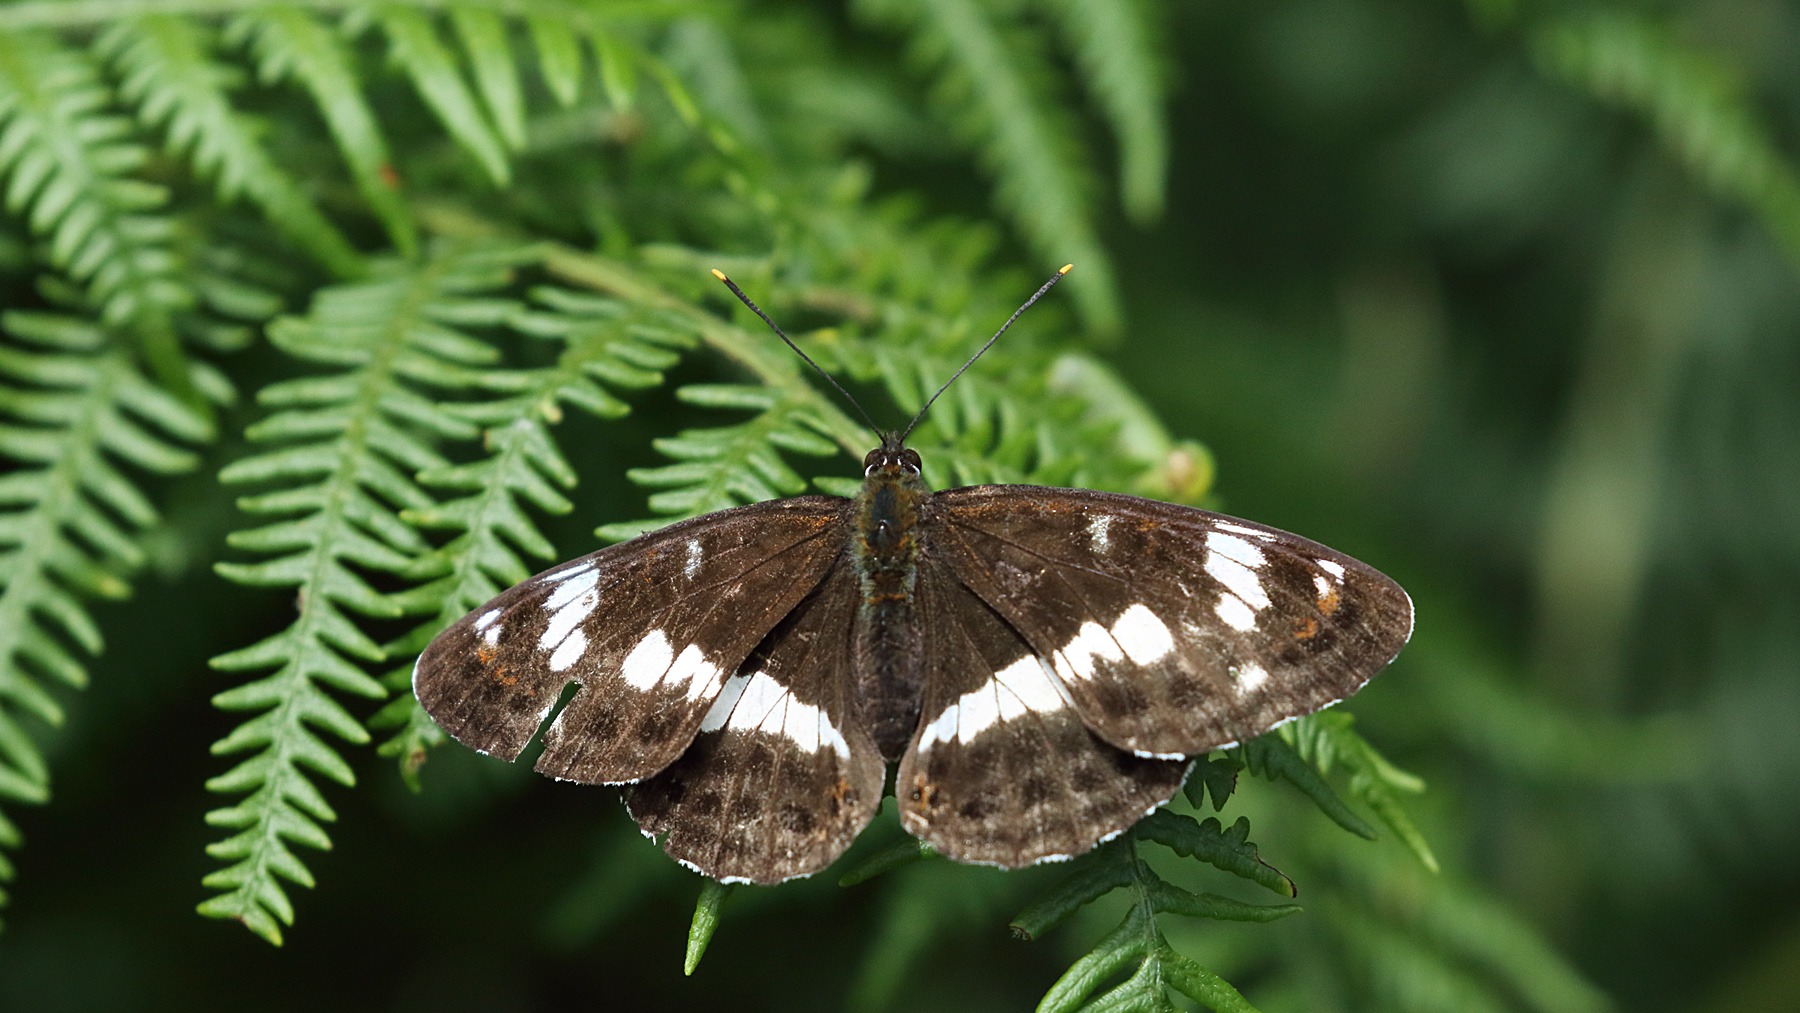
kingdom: Animalia
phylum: Arthropoda
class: Insecta
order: Lepidoptera
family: Nymphalidae
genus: Ladoga
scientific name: Ladoga camilla
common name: Hvid admiral
